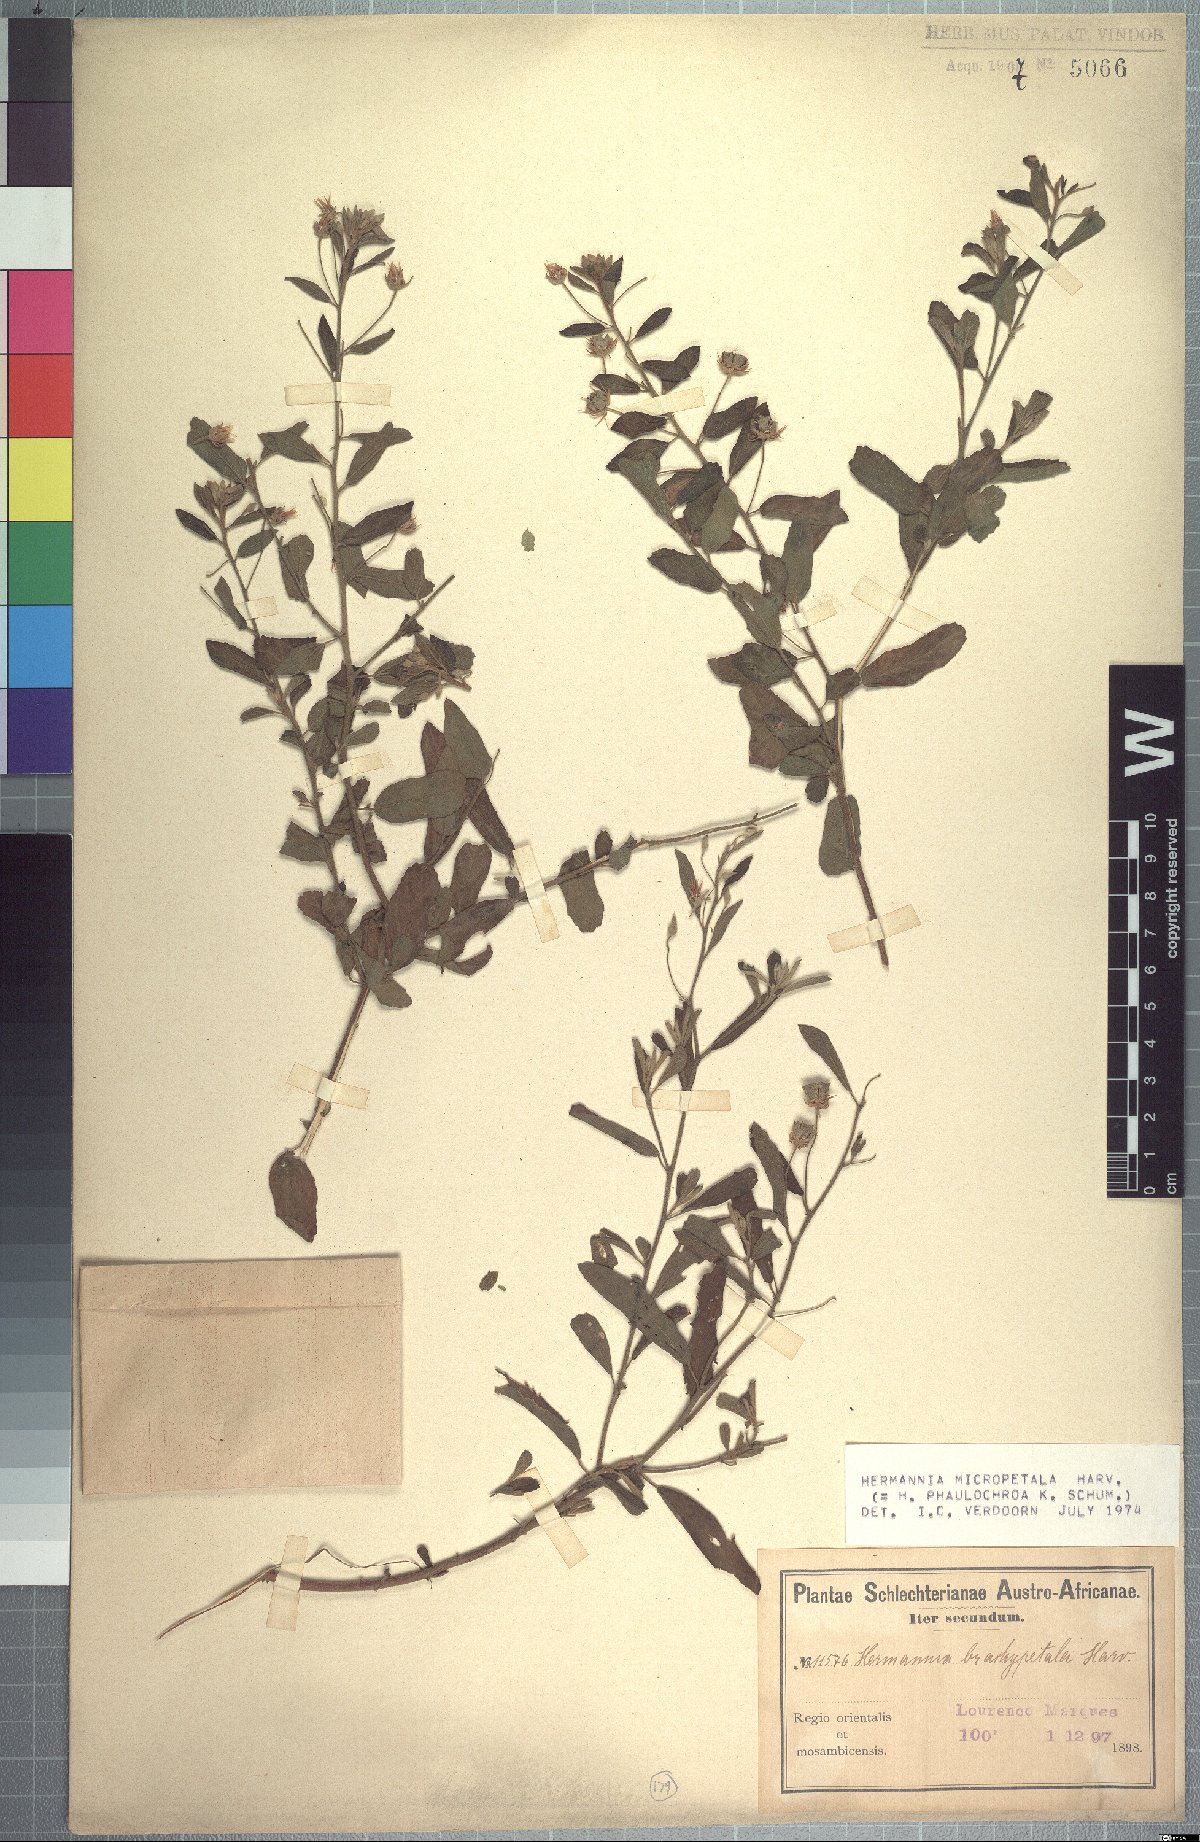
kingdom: Plantae
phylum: Tracheophyta
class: Magnoliopsida
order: Malvales
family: Malvaceae
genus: Hermannia
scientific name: Hermannia micropetala
